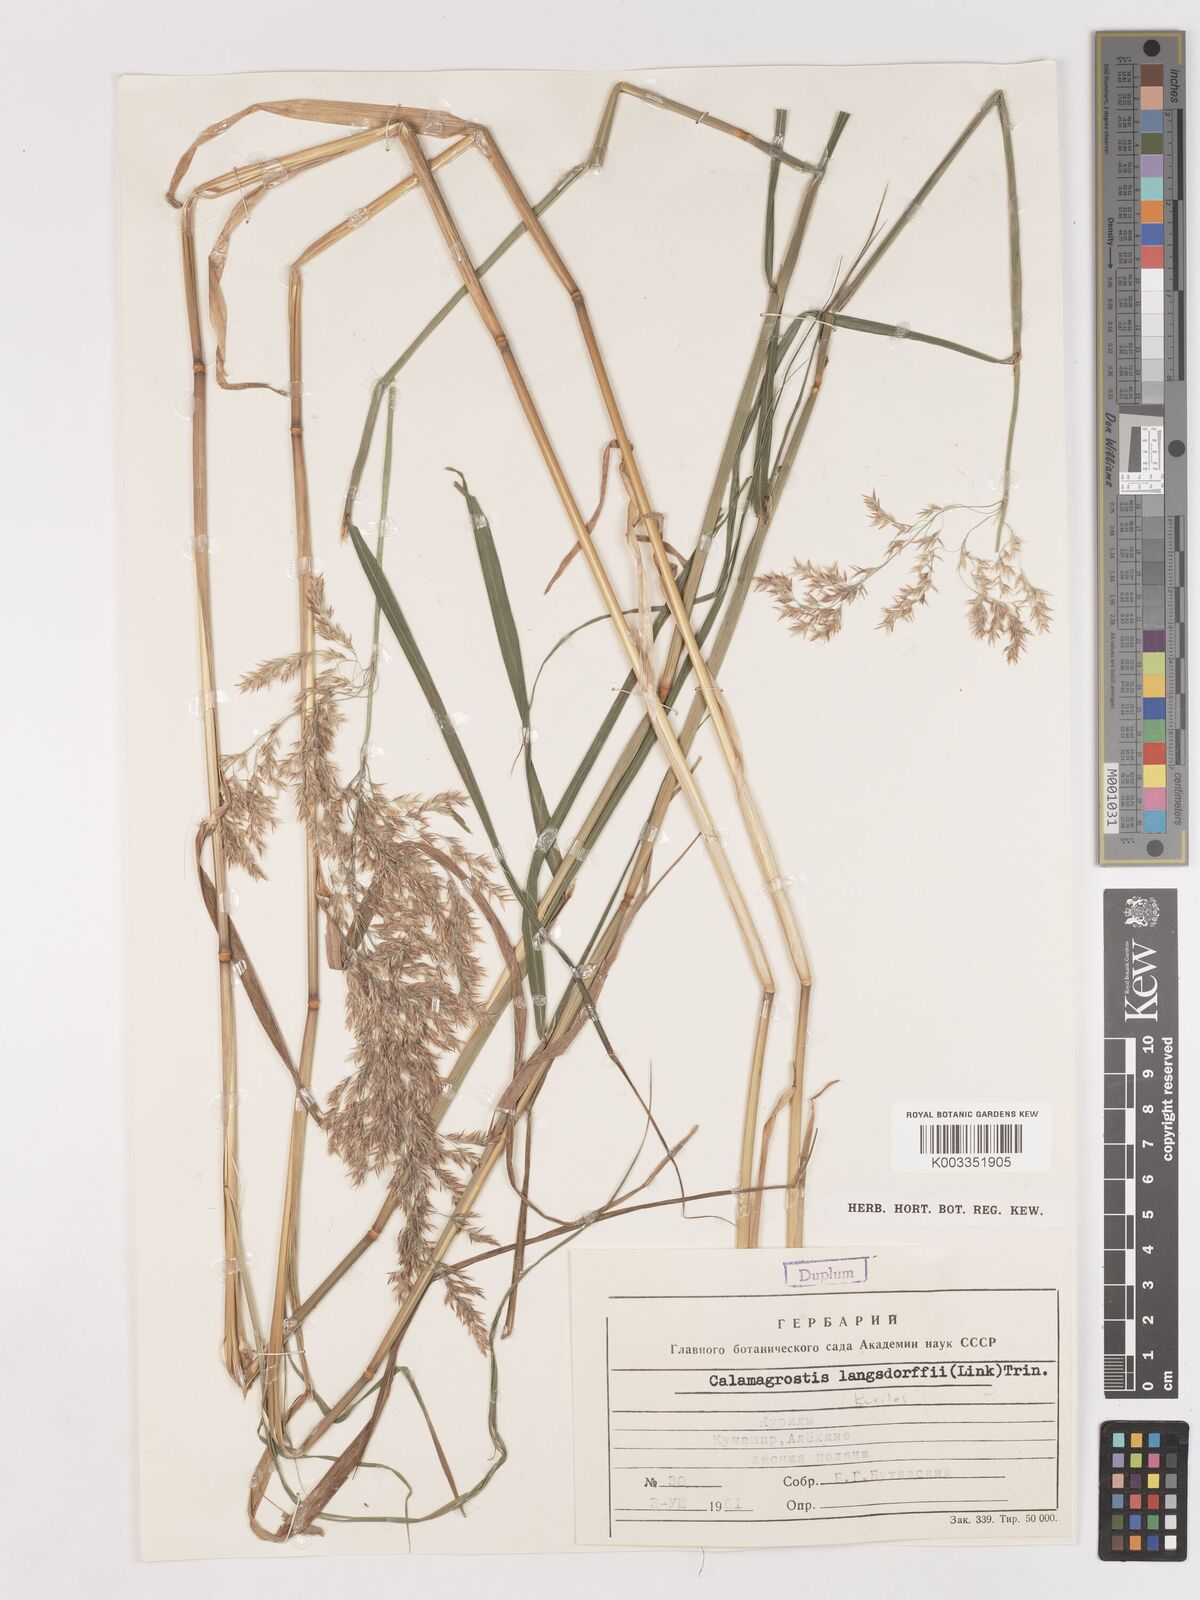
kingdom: Plantae
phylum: Tracheophyta
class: Liliopsida
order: Poales
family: Poaceae
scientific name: Poaceae
